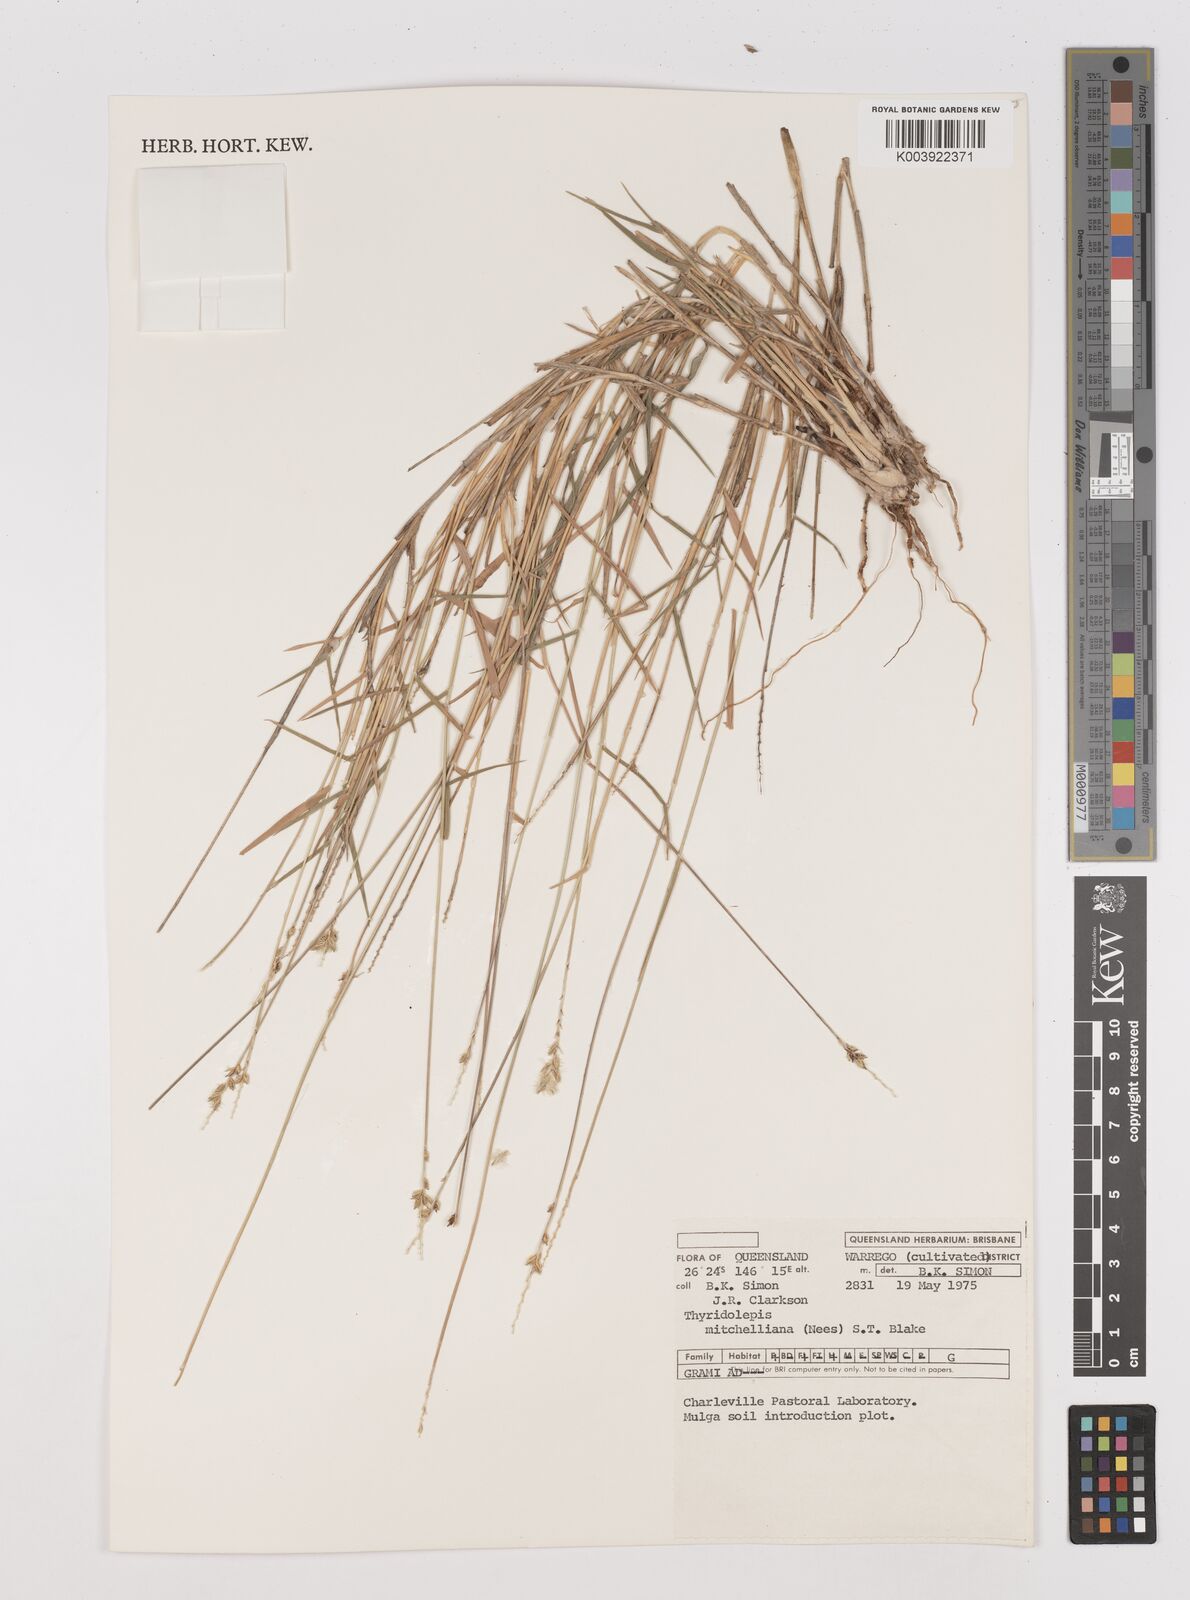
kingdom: Plantae
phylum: Tracheophyta
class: Liliopsida
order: Poales
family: Poaceae
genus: Thyridolepis
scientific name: Thyridolepis mitchelliana
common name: Rock tassel grass
